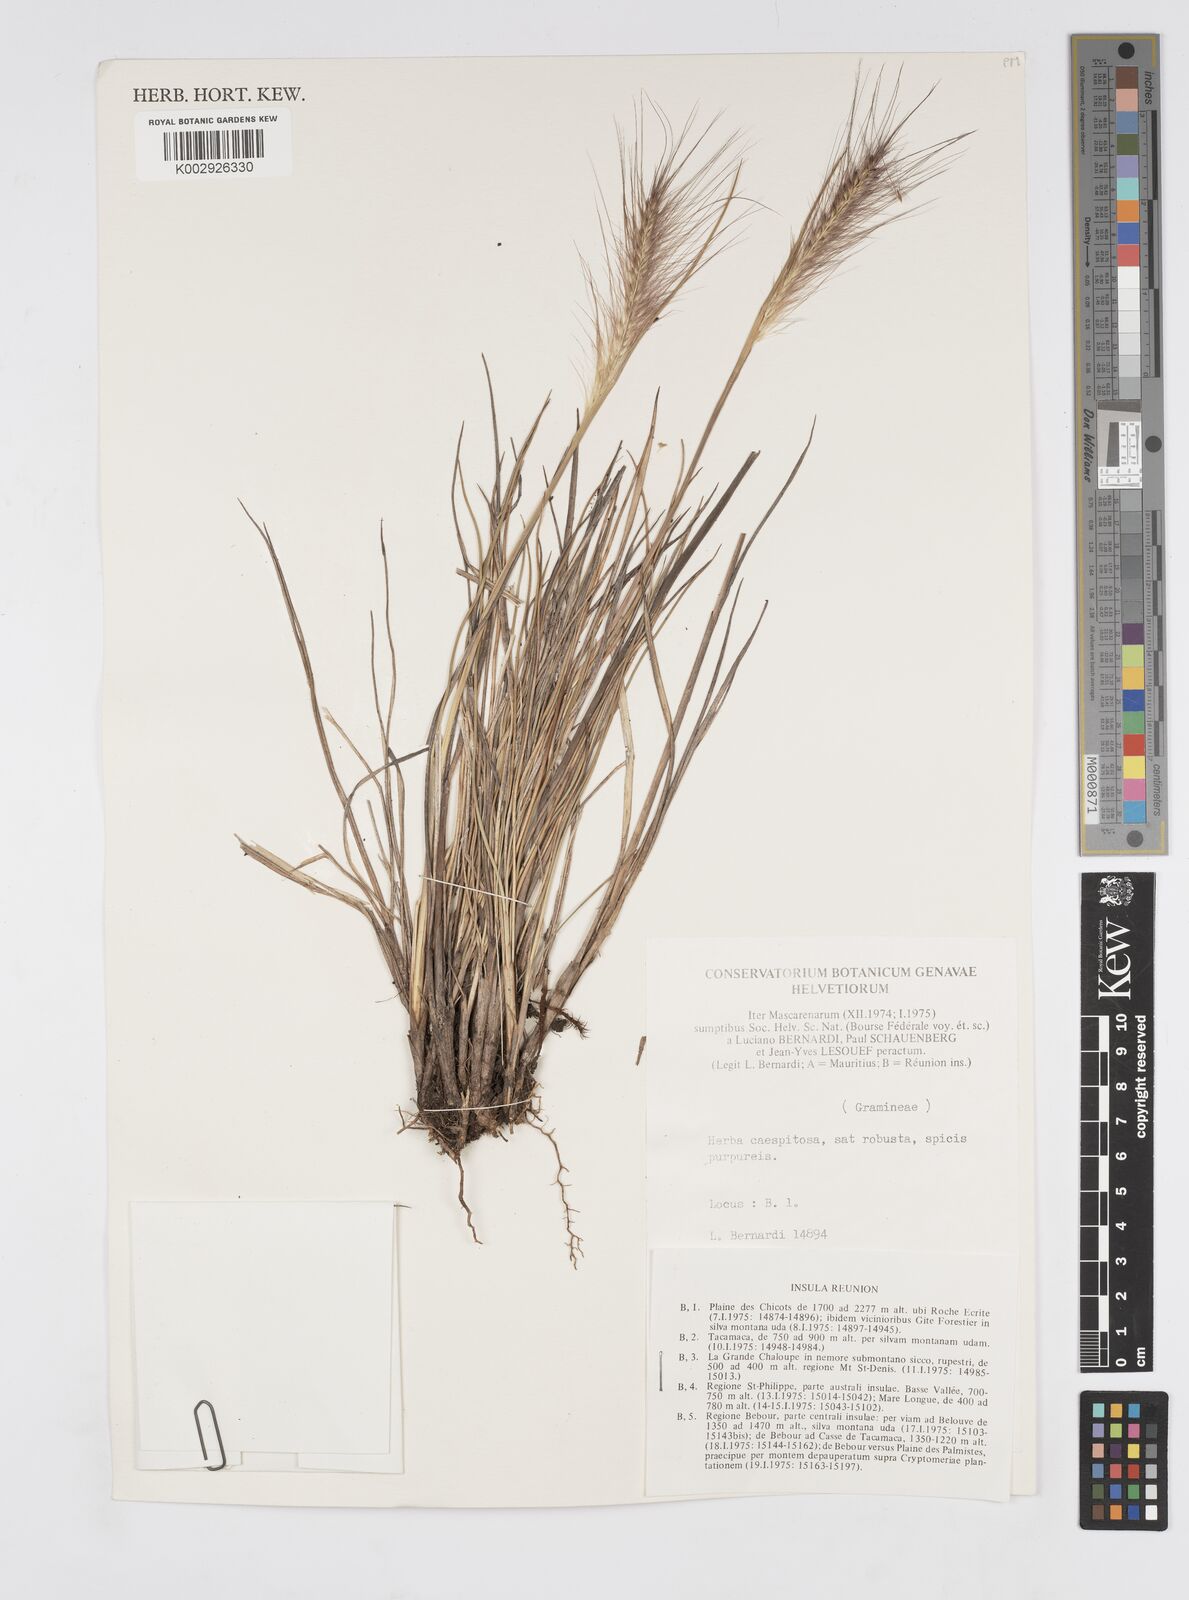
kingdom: Plantae
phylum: Tracheophyta
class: Liliopsida
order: Poales
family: Poaceae
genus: Cenchrus
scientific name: Cenchrus cafer
